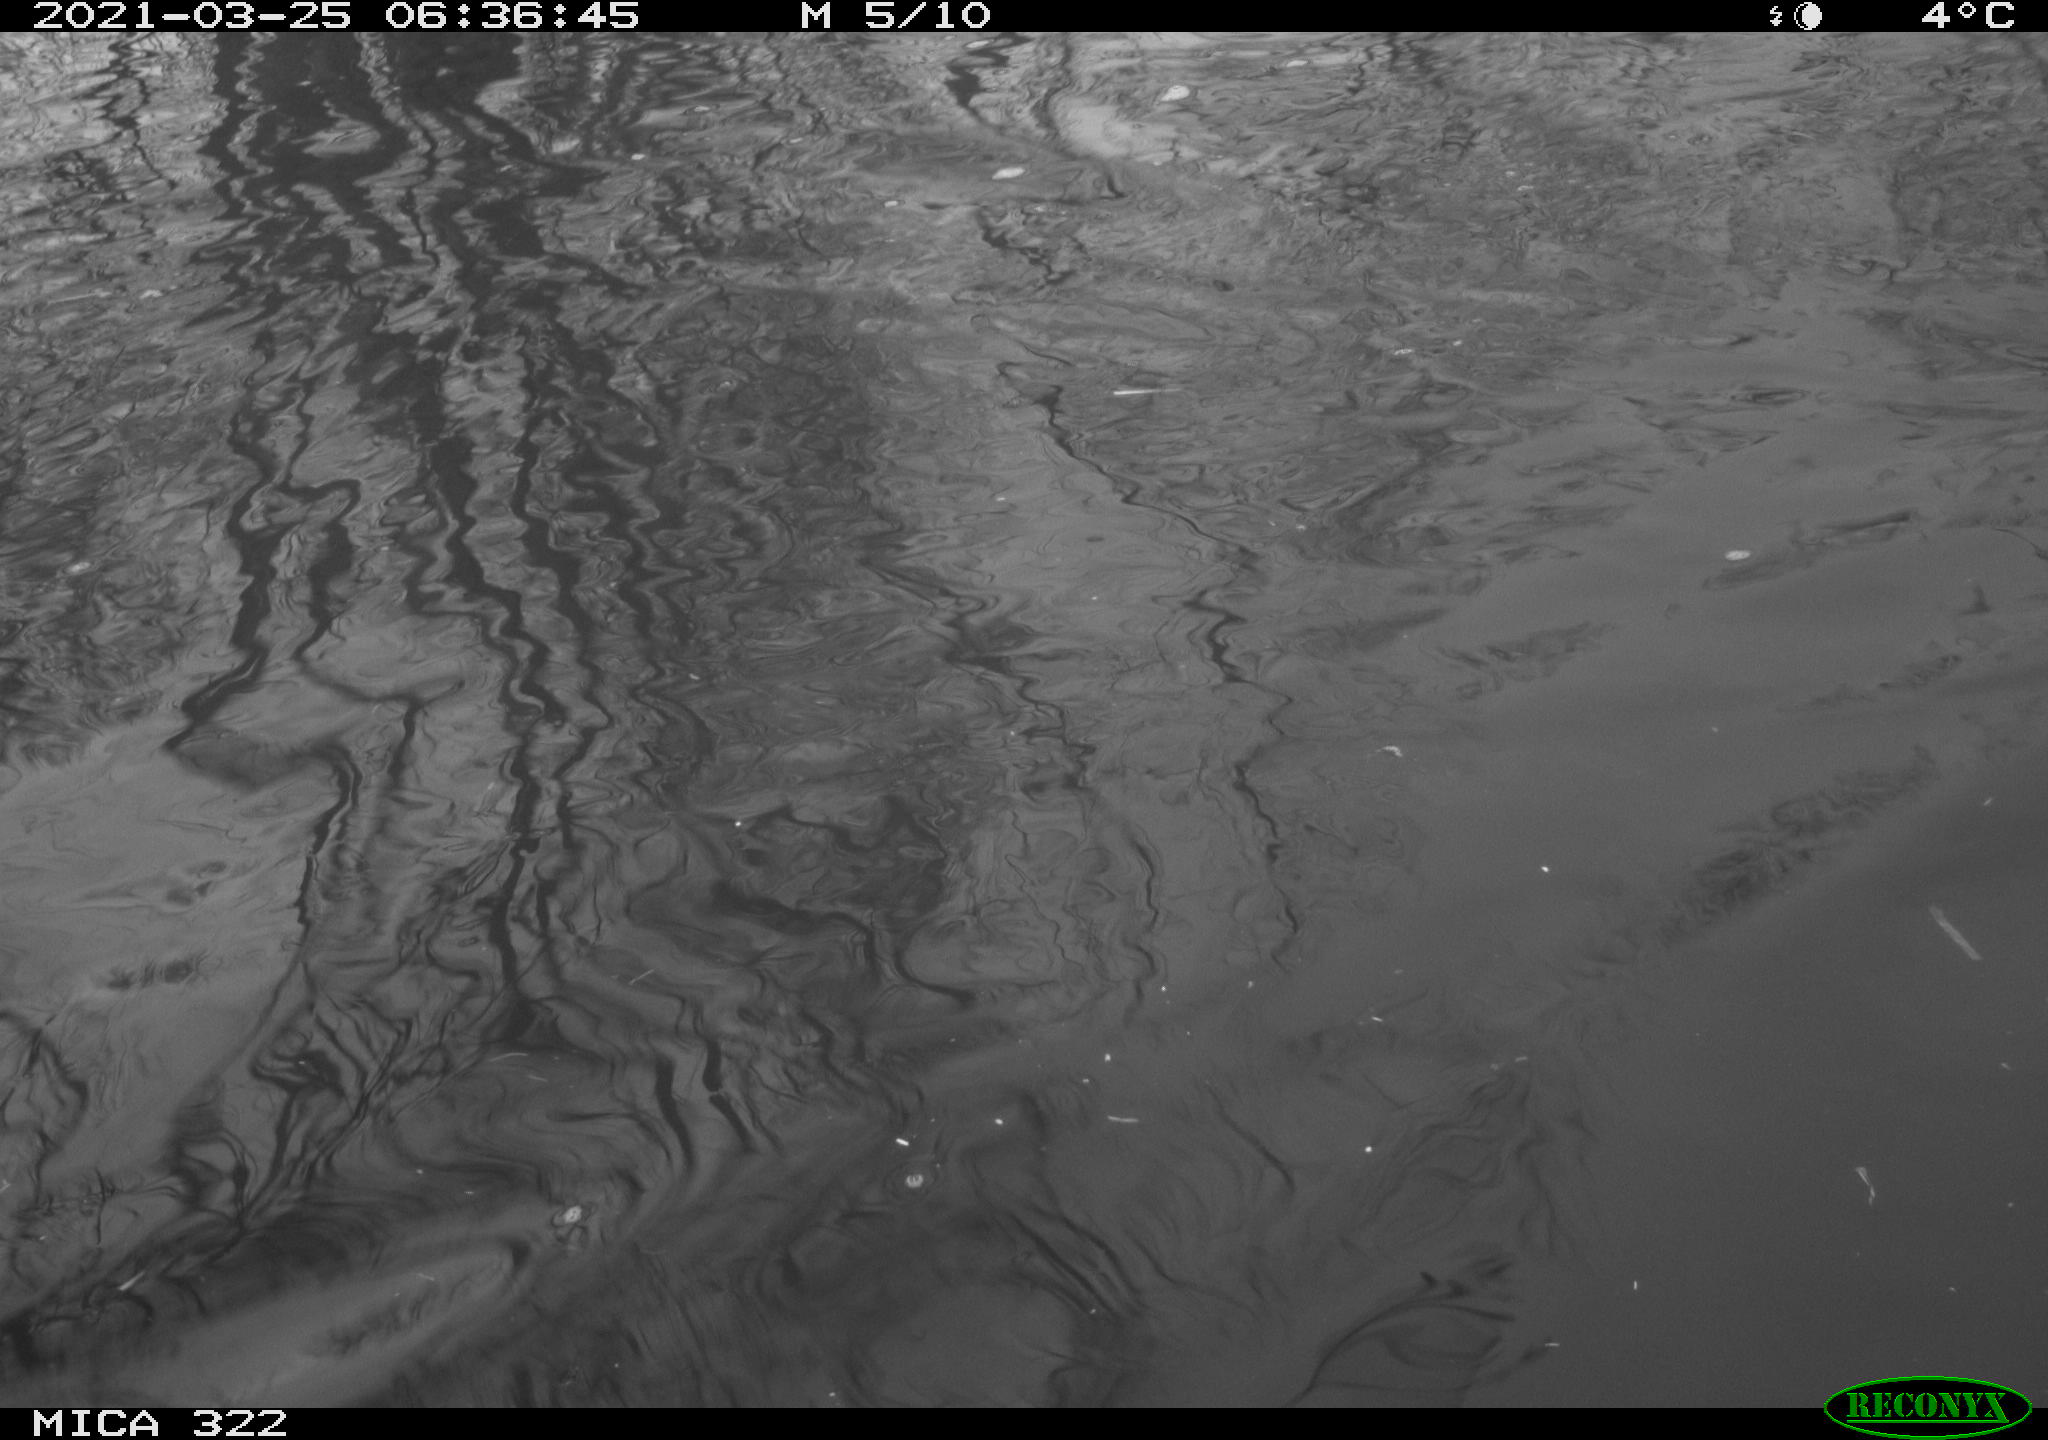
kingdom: Animalia
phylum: Chordata
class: Aves
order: Anseriformes
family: Anatidae
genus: Mareca
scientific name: Mareca strepera
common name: Gadwall
